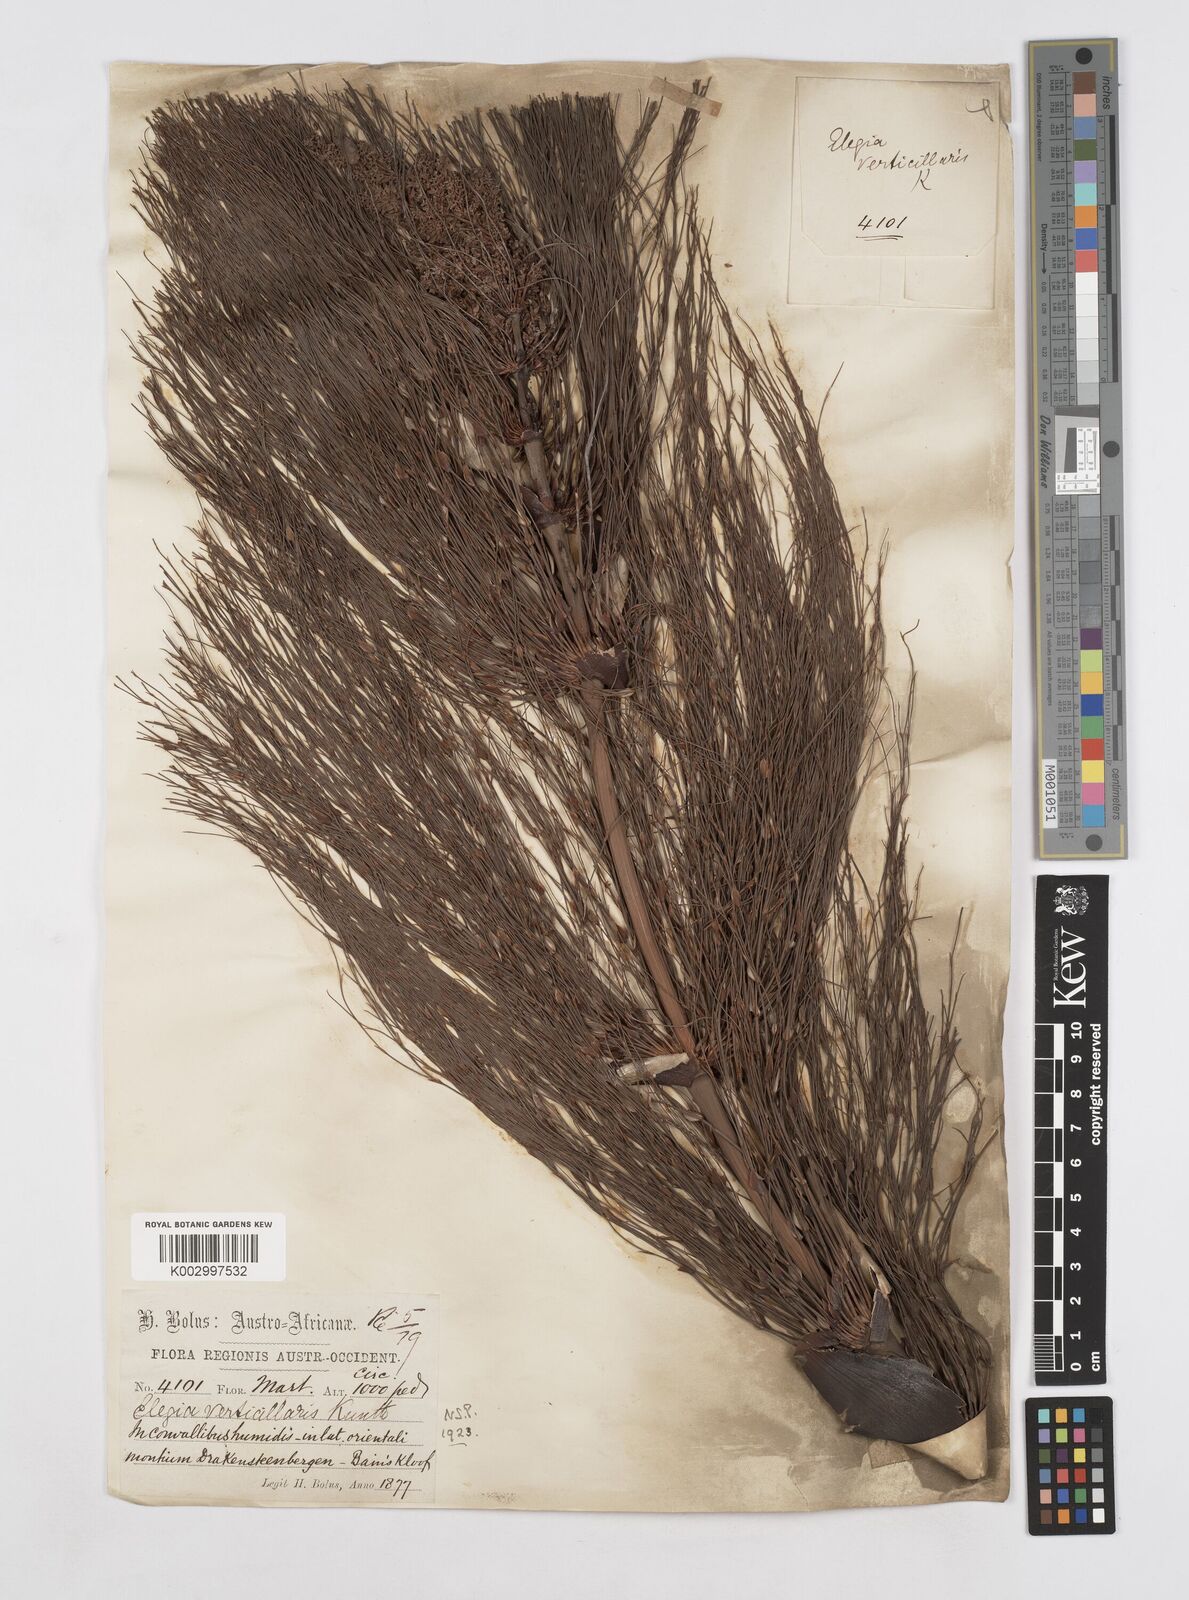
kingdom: Plantae
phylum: Tracheophyta
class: Liliopsida
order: Poales
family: Restionaceae
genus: Elegia
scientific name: Elegia capensis
